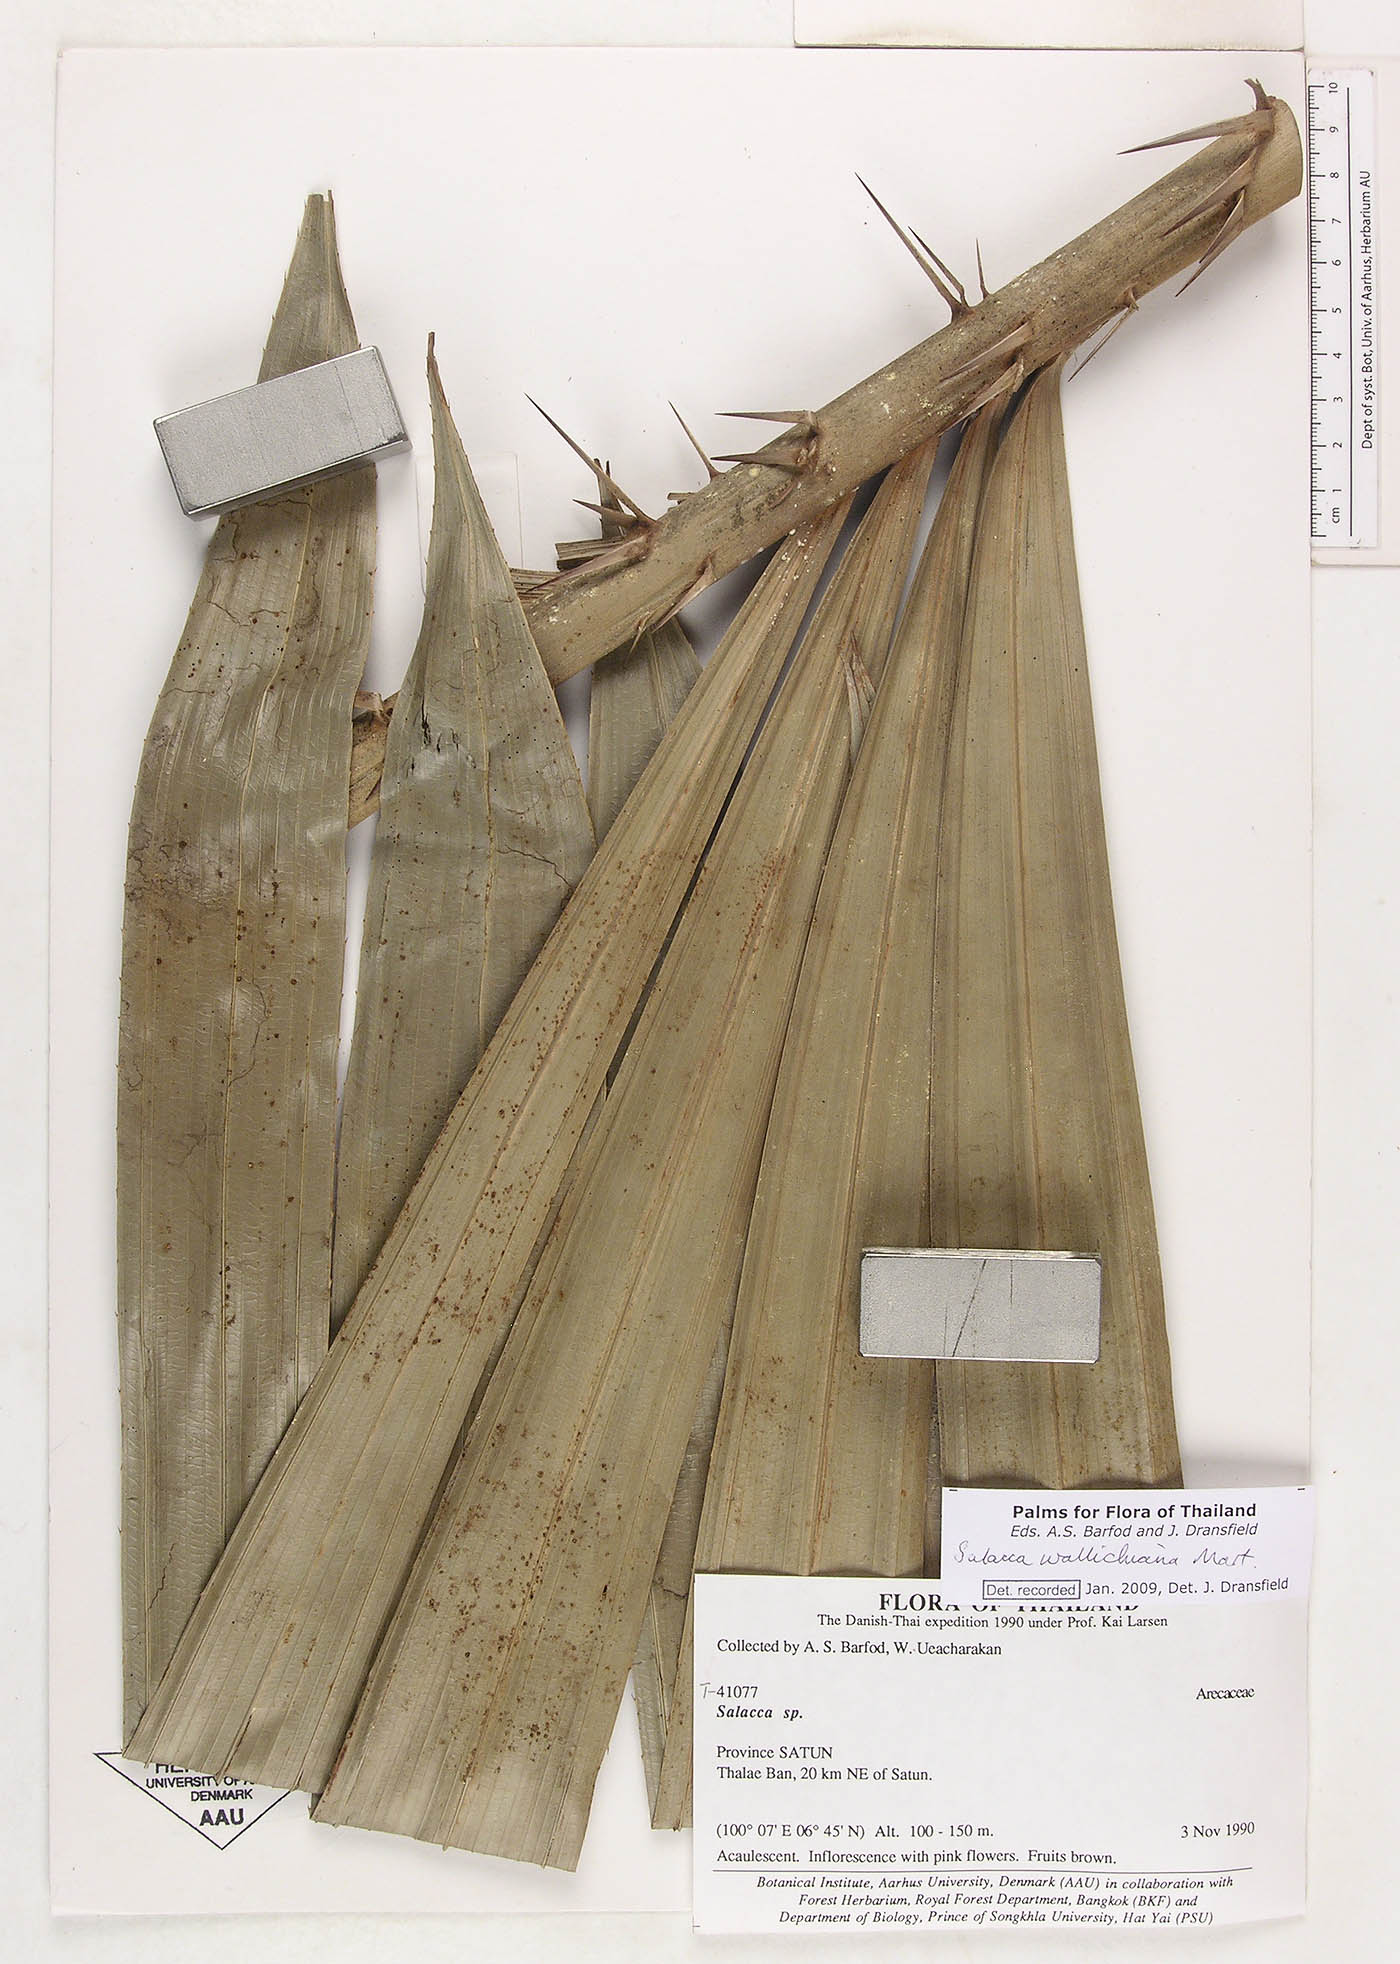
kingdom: Plantae
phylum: Tracheophyta
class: Liliopsida
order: Arecales
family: Arecaceae
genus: Salacca
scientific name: Salacca wallichiana
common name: Rakum palm
